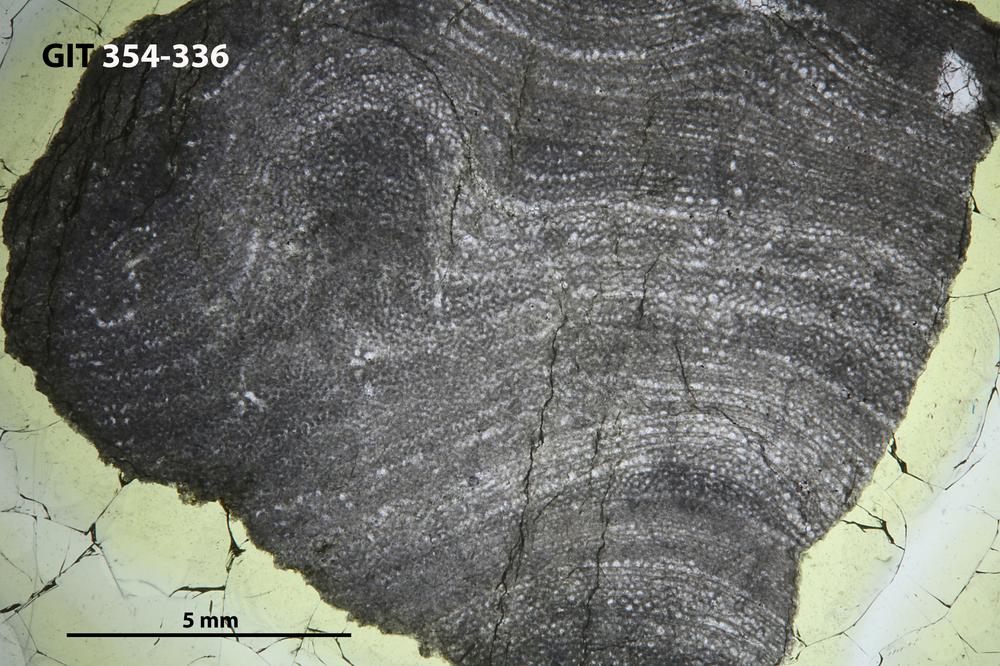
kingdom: Animalia
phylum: Porifera
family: Clathrodictyidae
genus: Clathrodictyon
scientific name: Clathrodictyon clivosum
